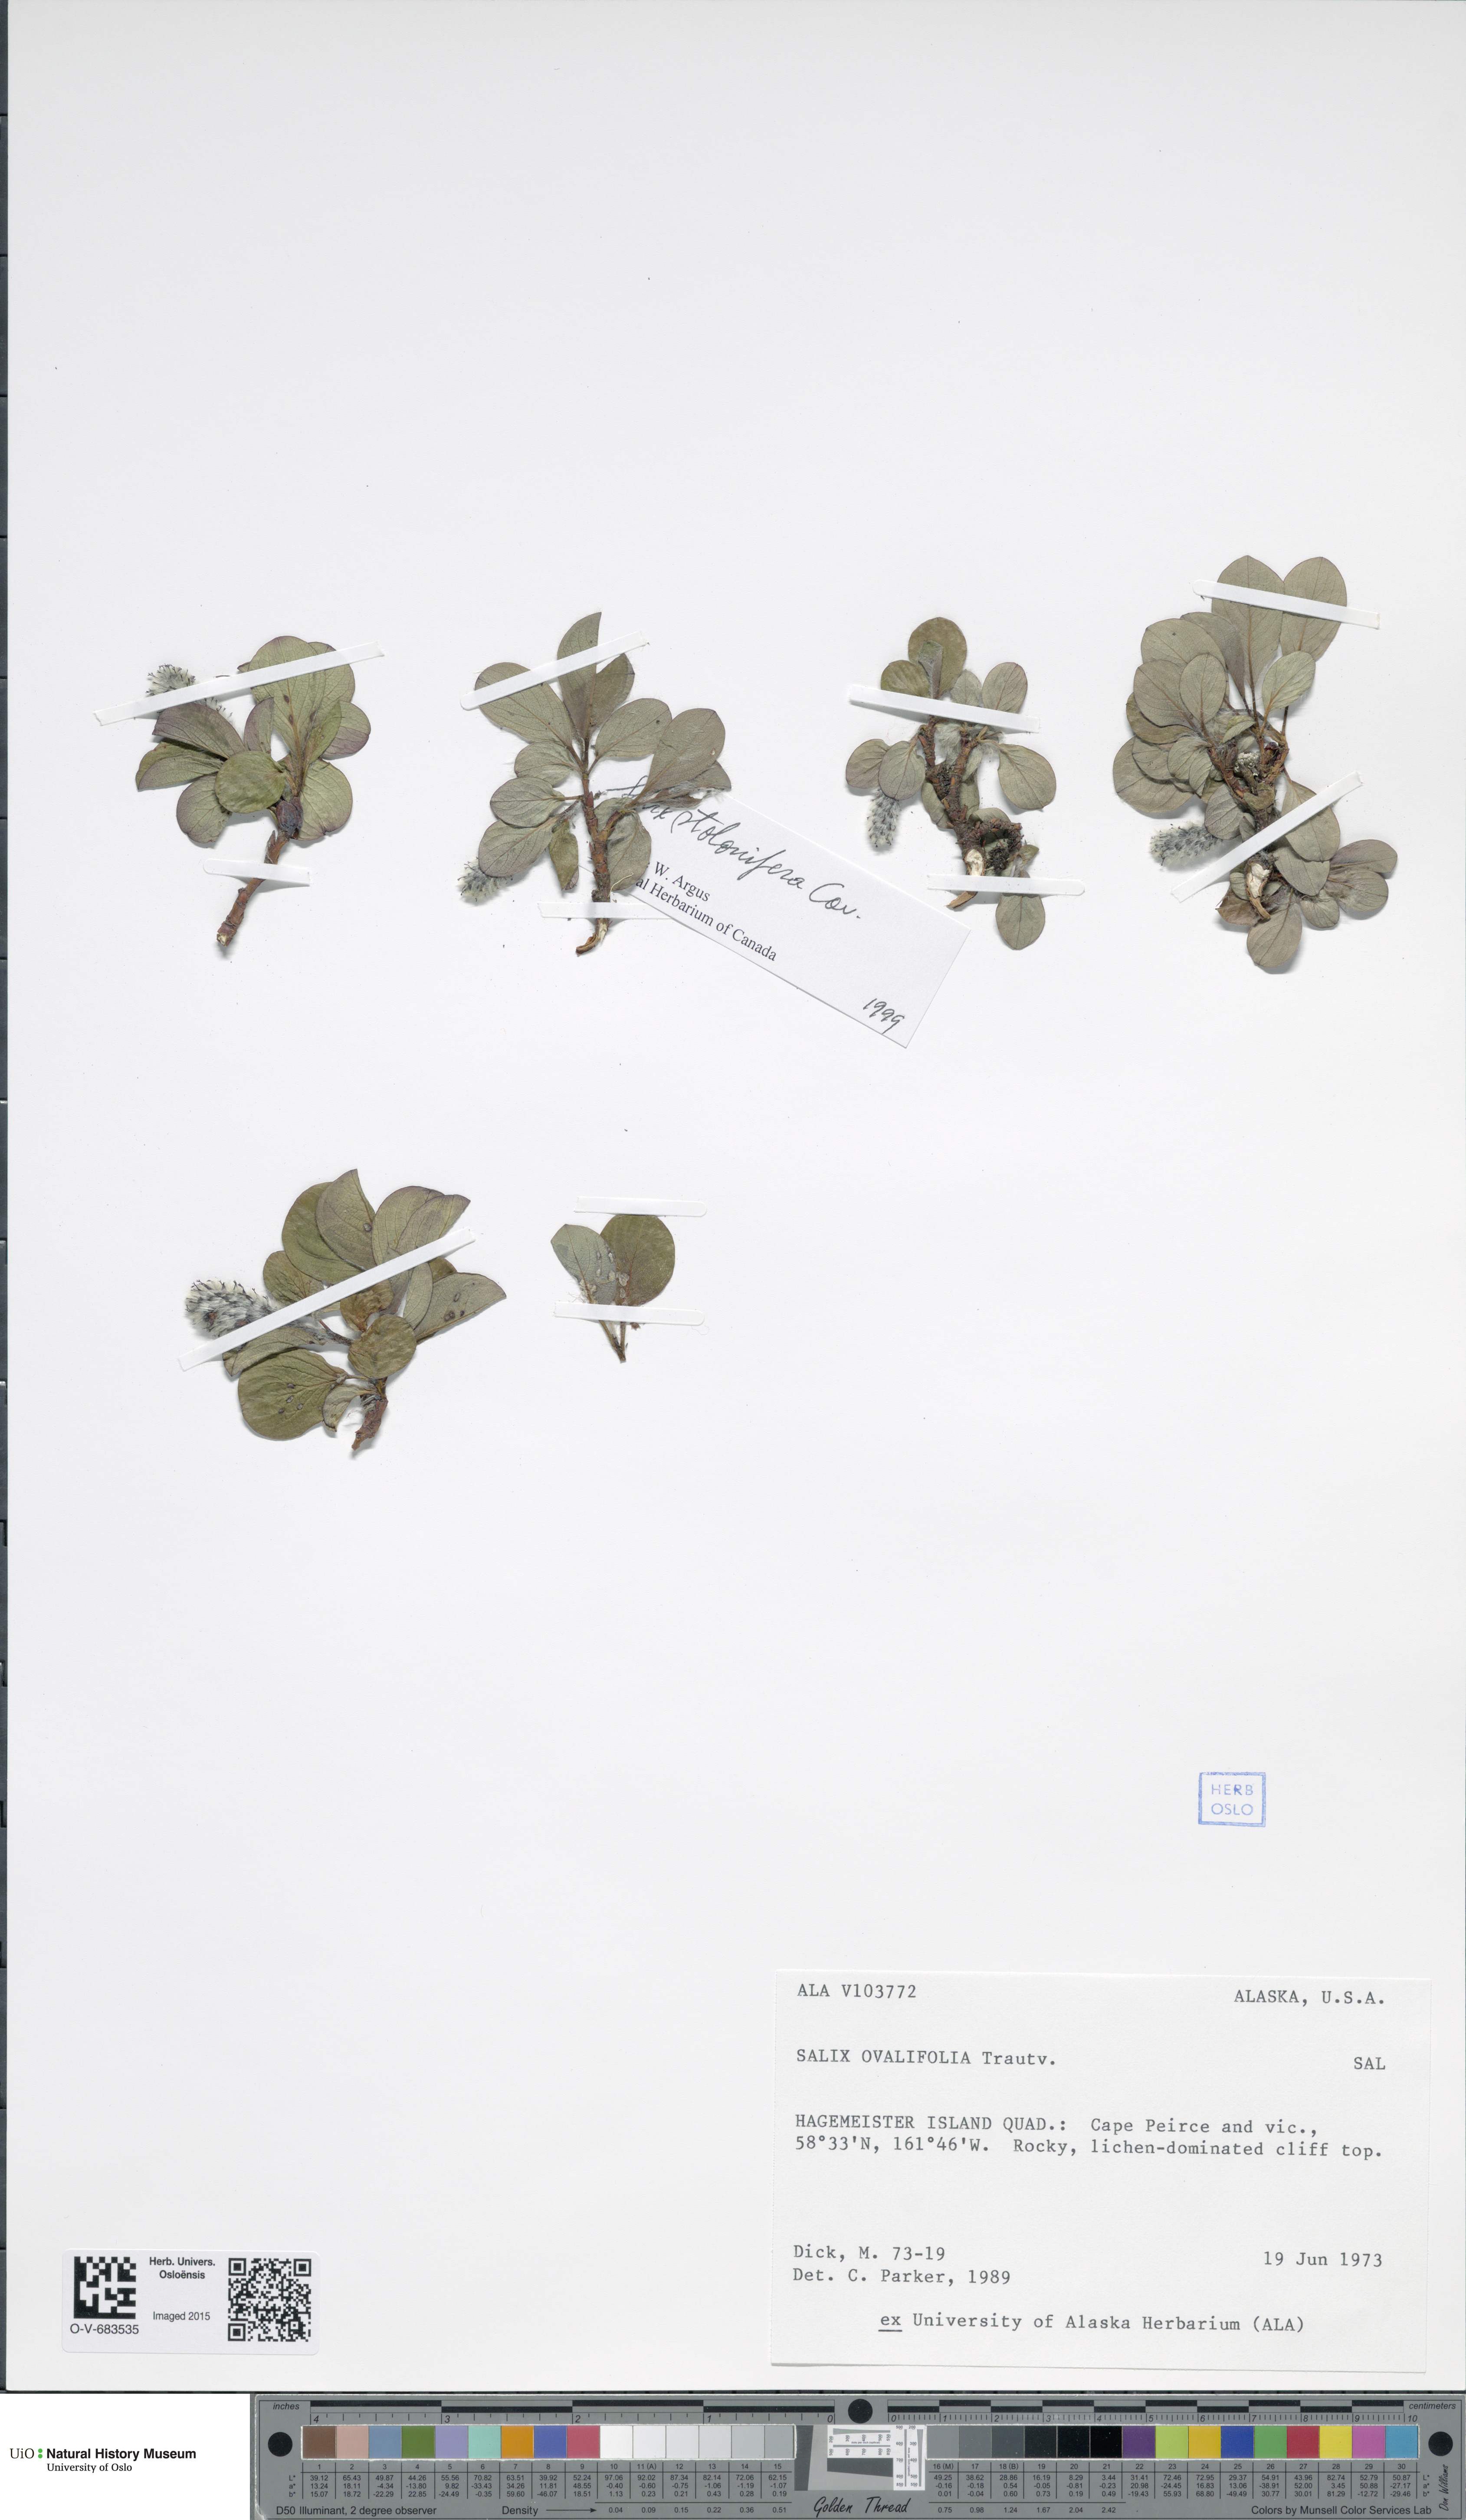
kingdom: Plantae
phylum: Tracheophyta
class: Magnoliopsida
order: Malpighiales
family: Salicaceae
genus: Salix
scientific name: Salix ovalifolia
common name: Arctic seashore willow
